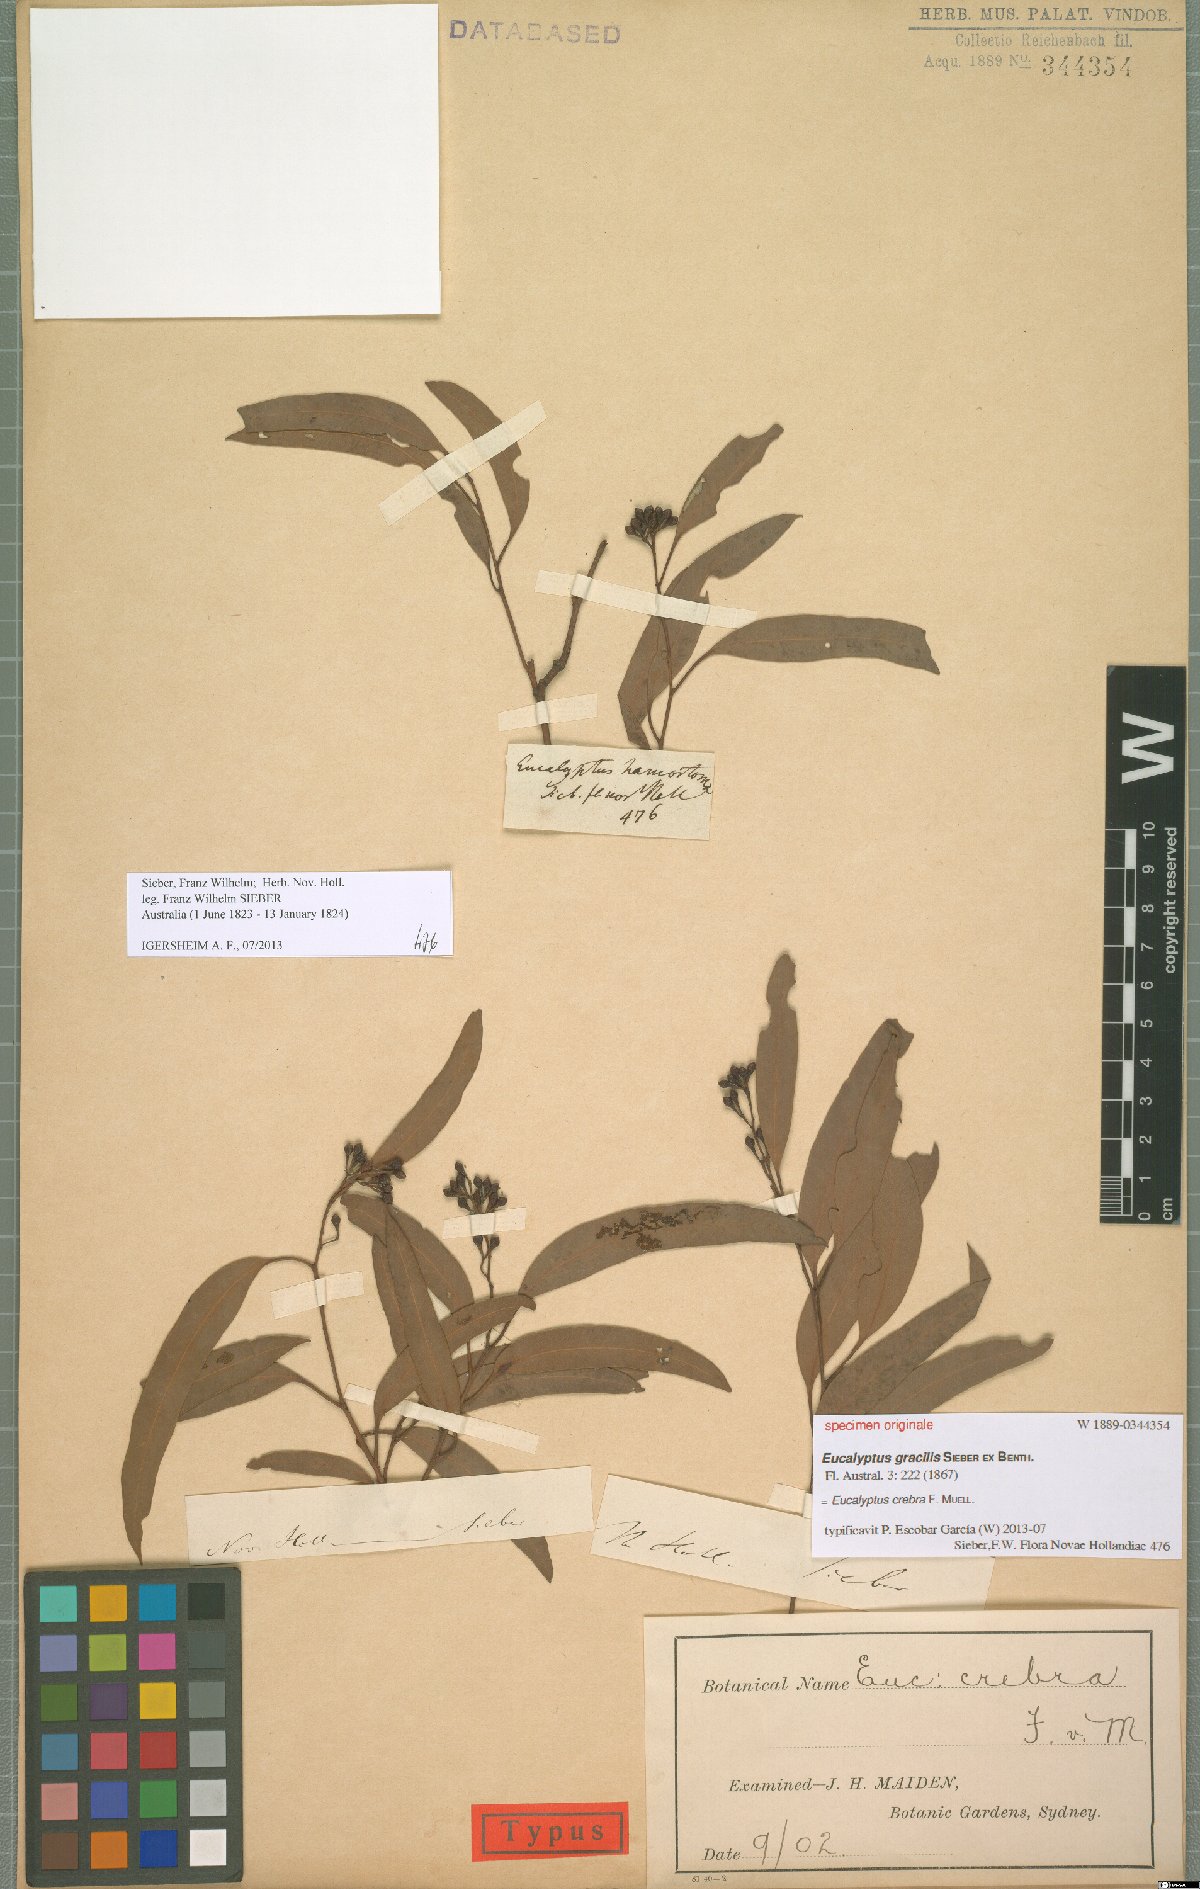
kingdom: Plantae
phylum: Tracheophyta
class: Magnoliopsida
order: Myrtales
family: Myrtaceae
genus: Eucalyptus
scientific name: Eucalyptus crebra
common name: Narrowleaf red ironbark
